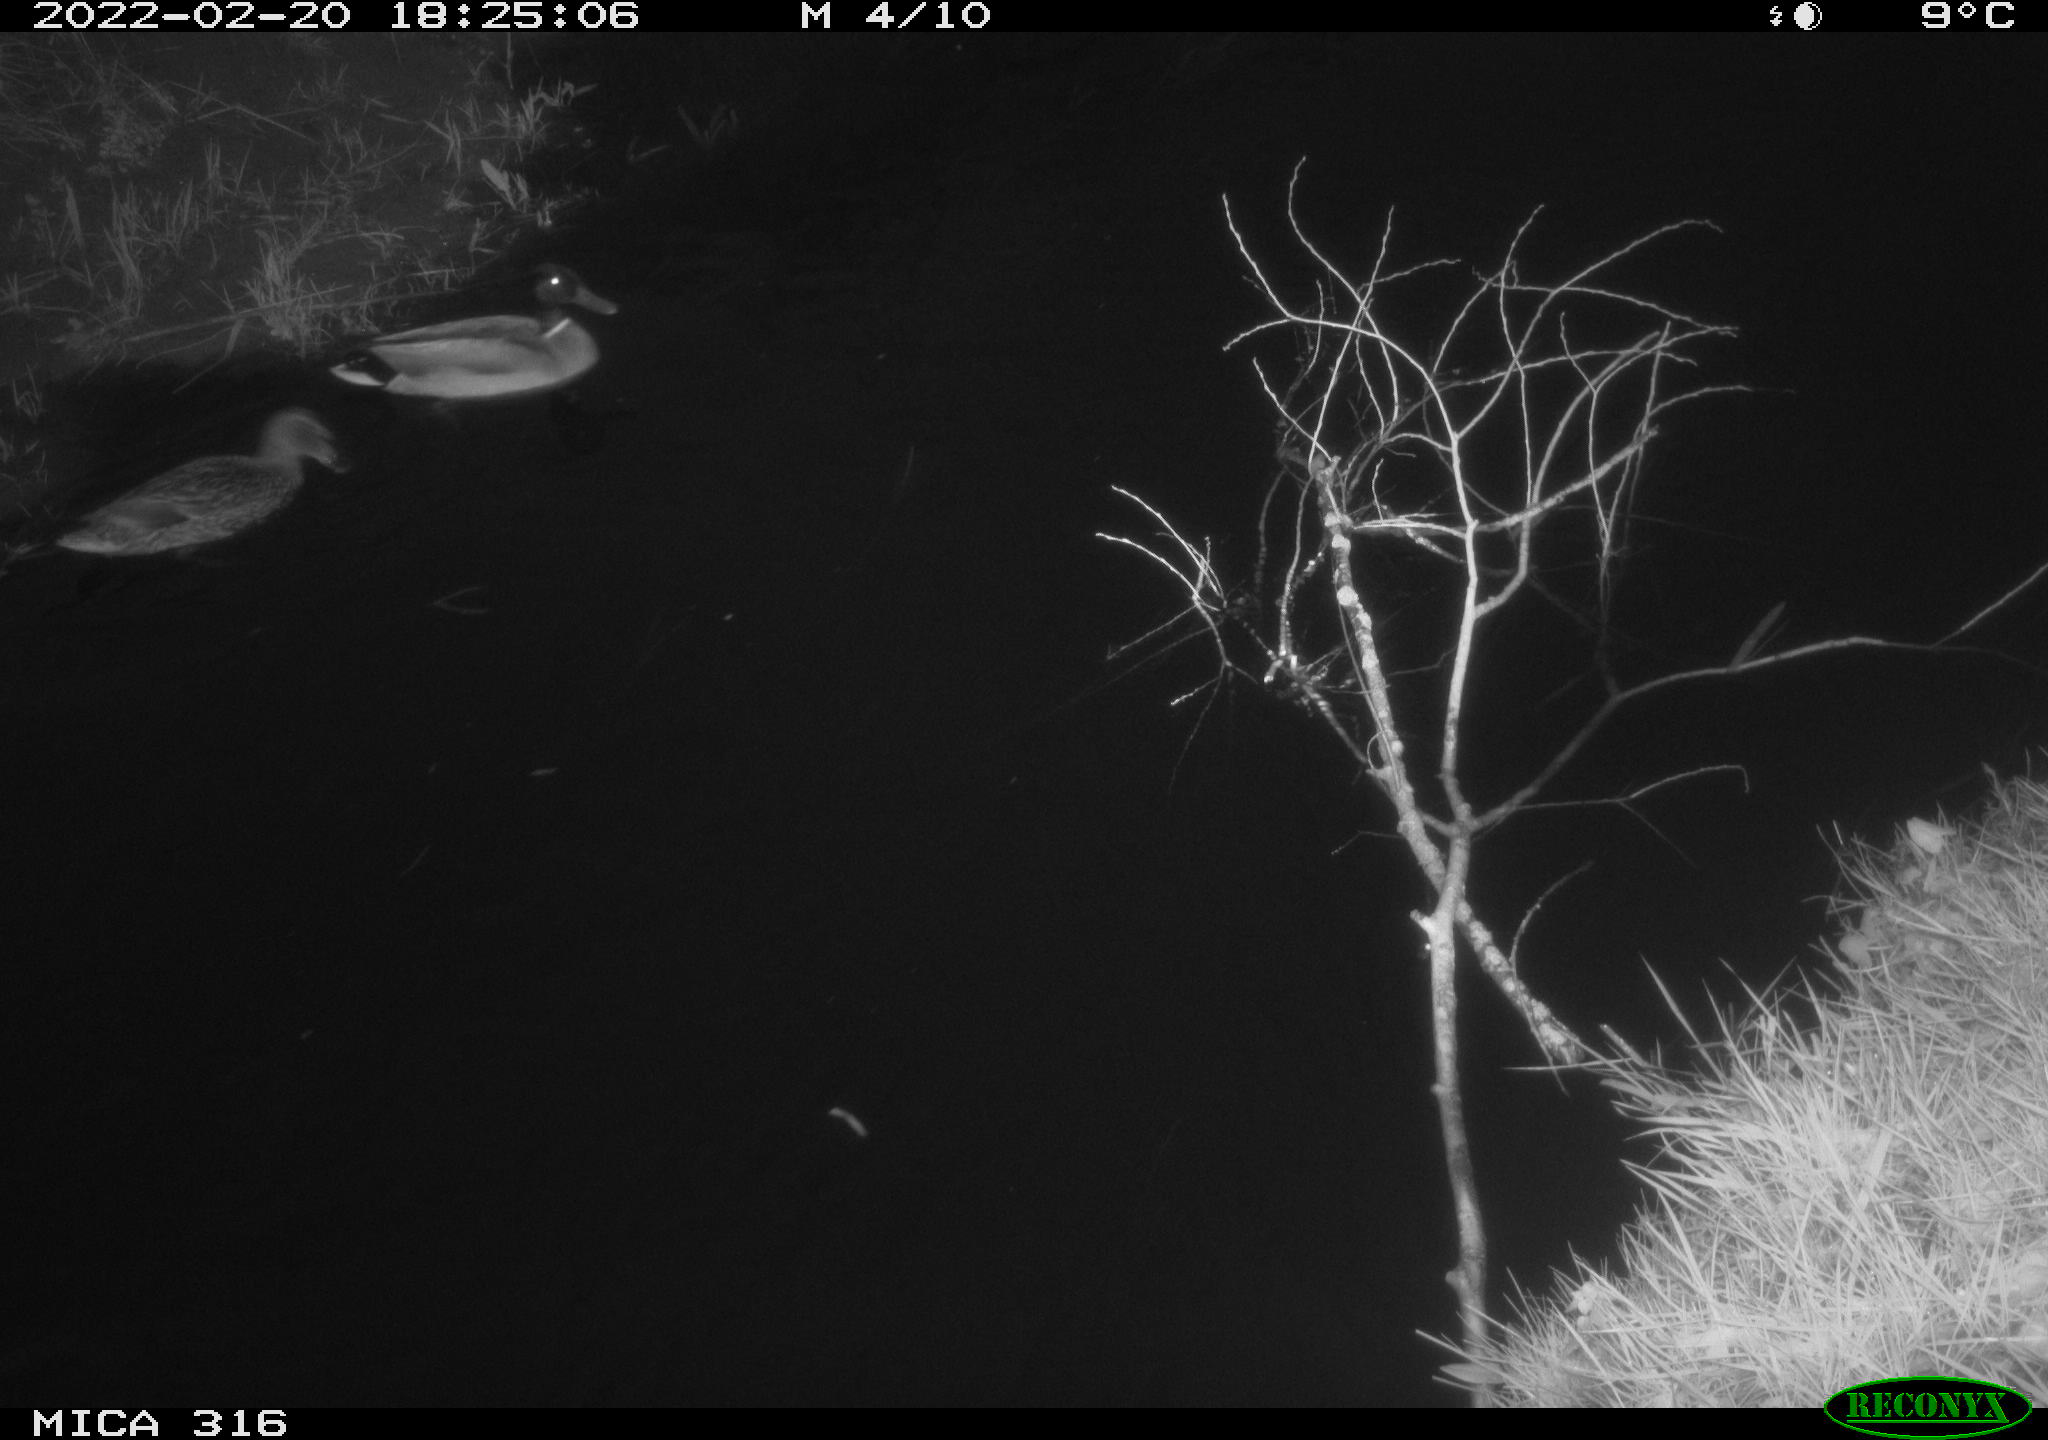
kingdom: Animalia
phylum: Chordata
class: Aves
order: Anseriformes
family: Anatidae
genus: Anas
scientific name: Anas platyrhynchos
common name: Mallard
